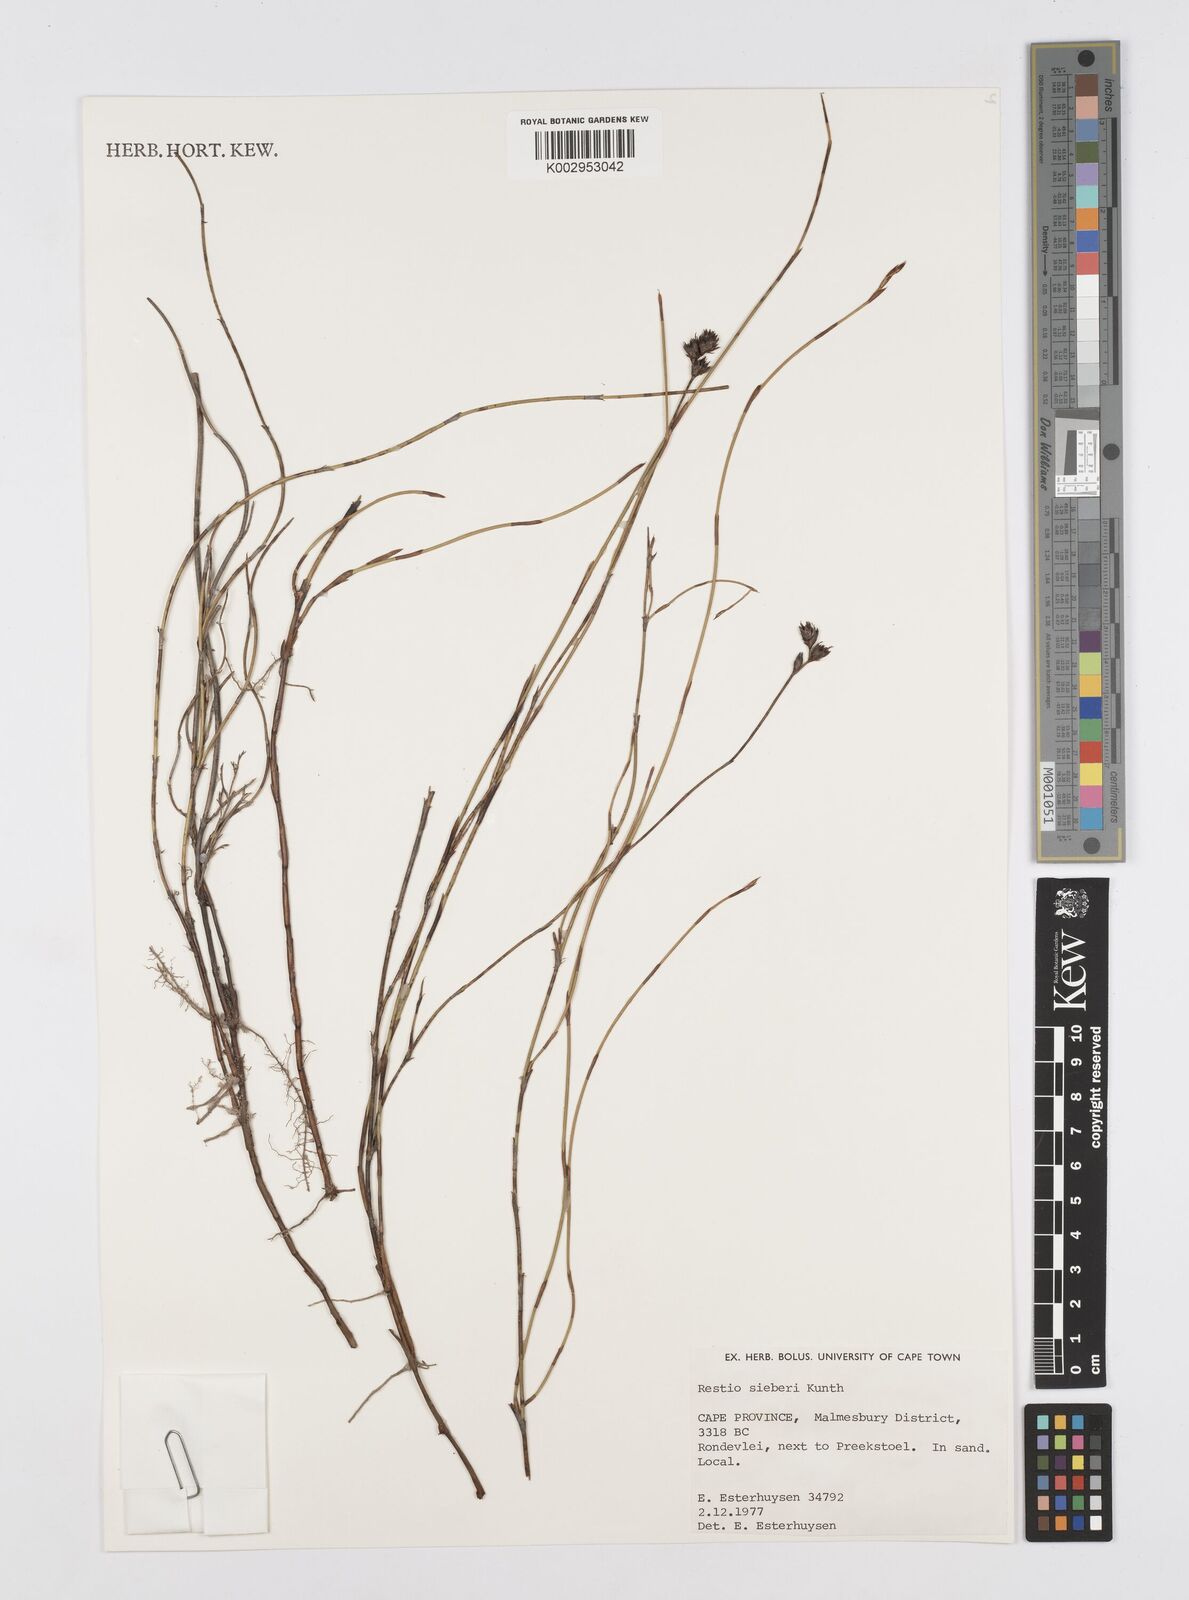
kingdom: Plantae
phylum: Tracheophyta
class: Liliopsida
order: Poales
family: Restionaceae
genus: Restio
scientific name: Restio sieberi
